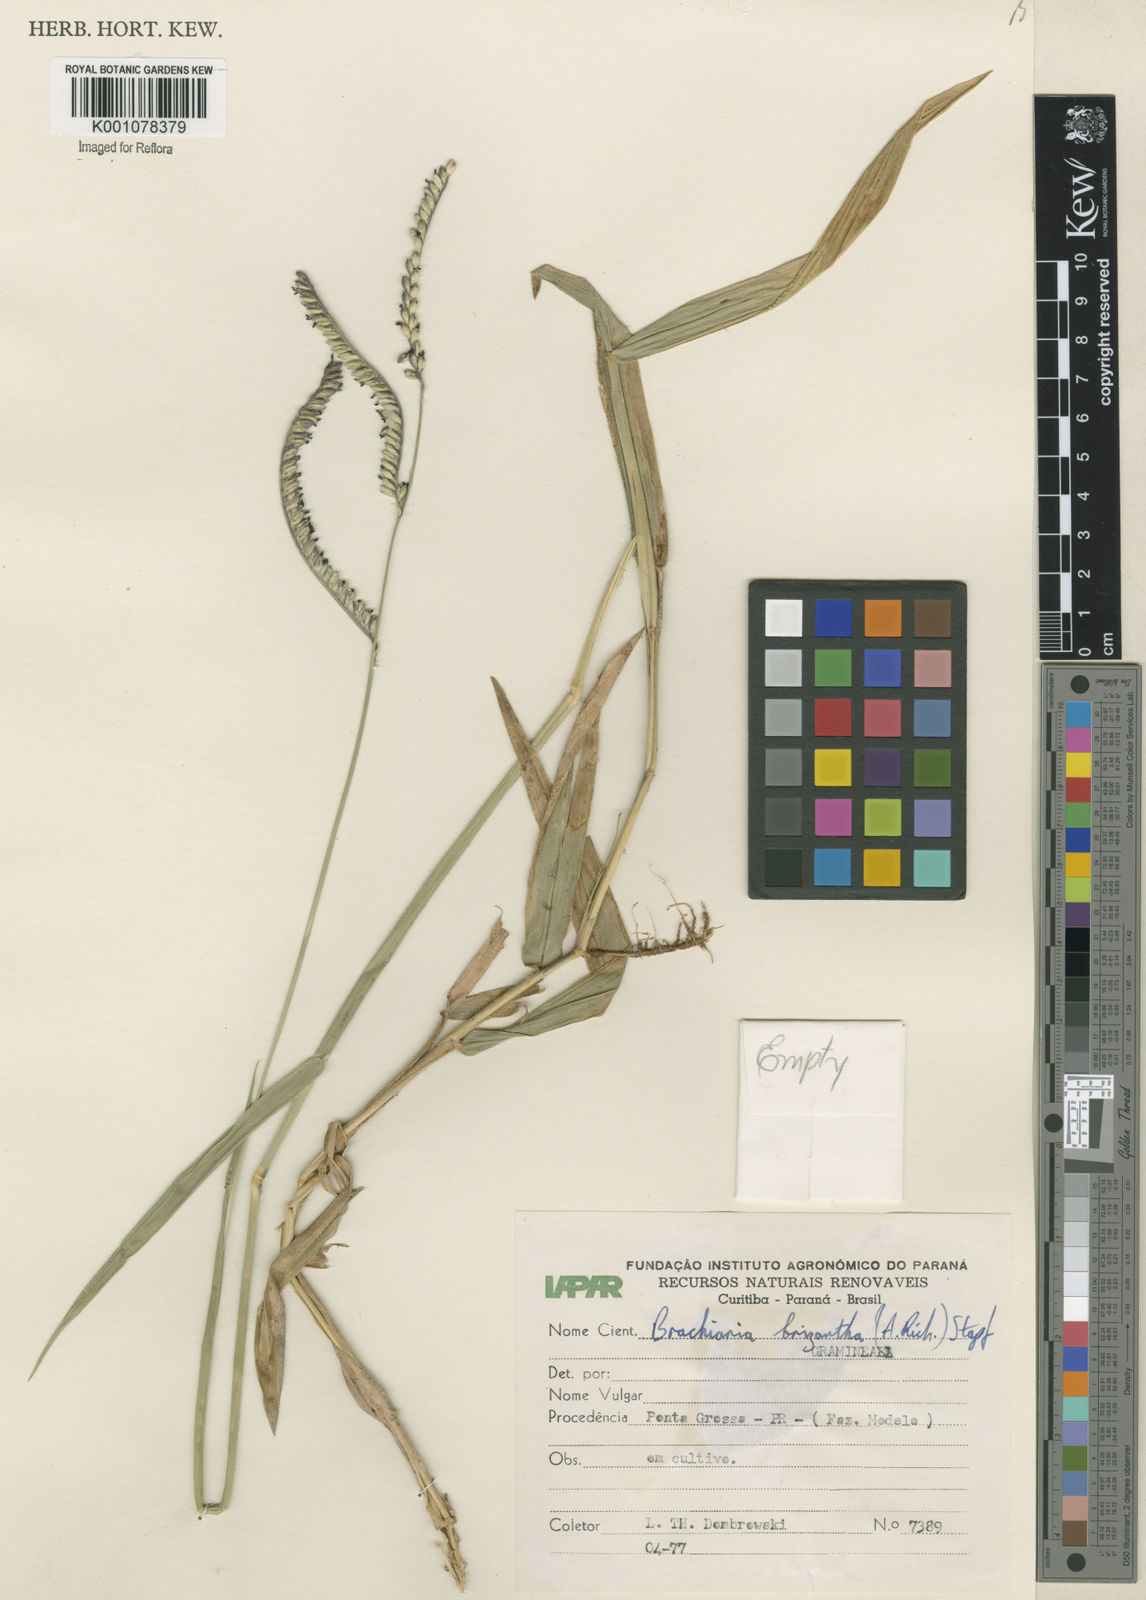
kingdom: Plantae
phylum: Tracheophyta
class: Liliopsida
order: Poales
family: Poaceae
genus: Urochloa
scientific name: Urochloa brizantha
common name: Palisade signalgrass
